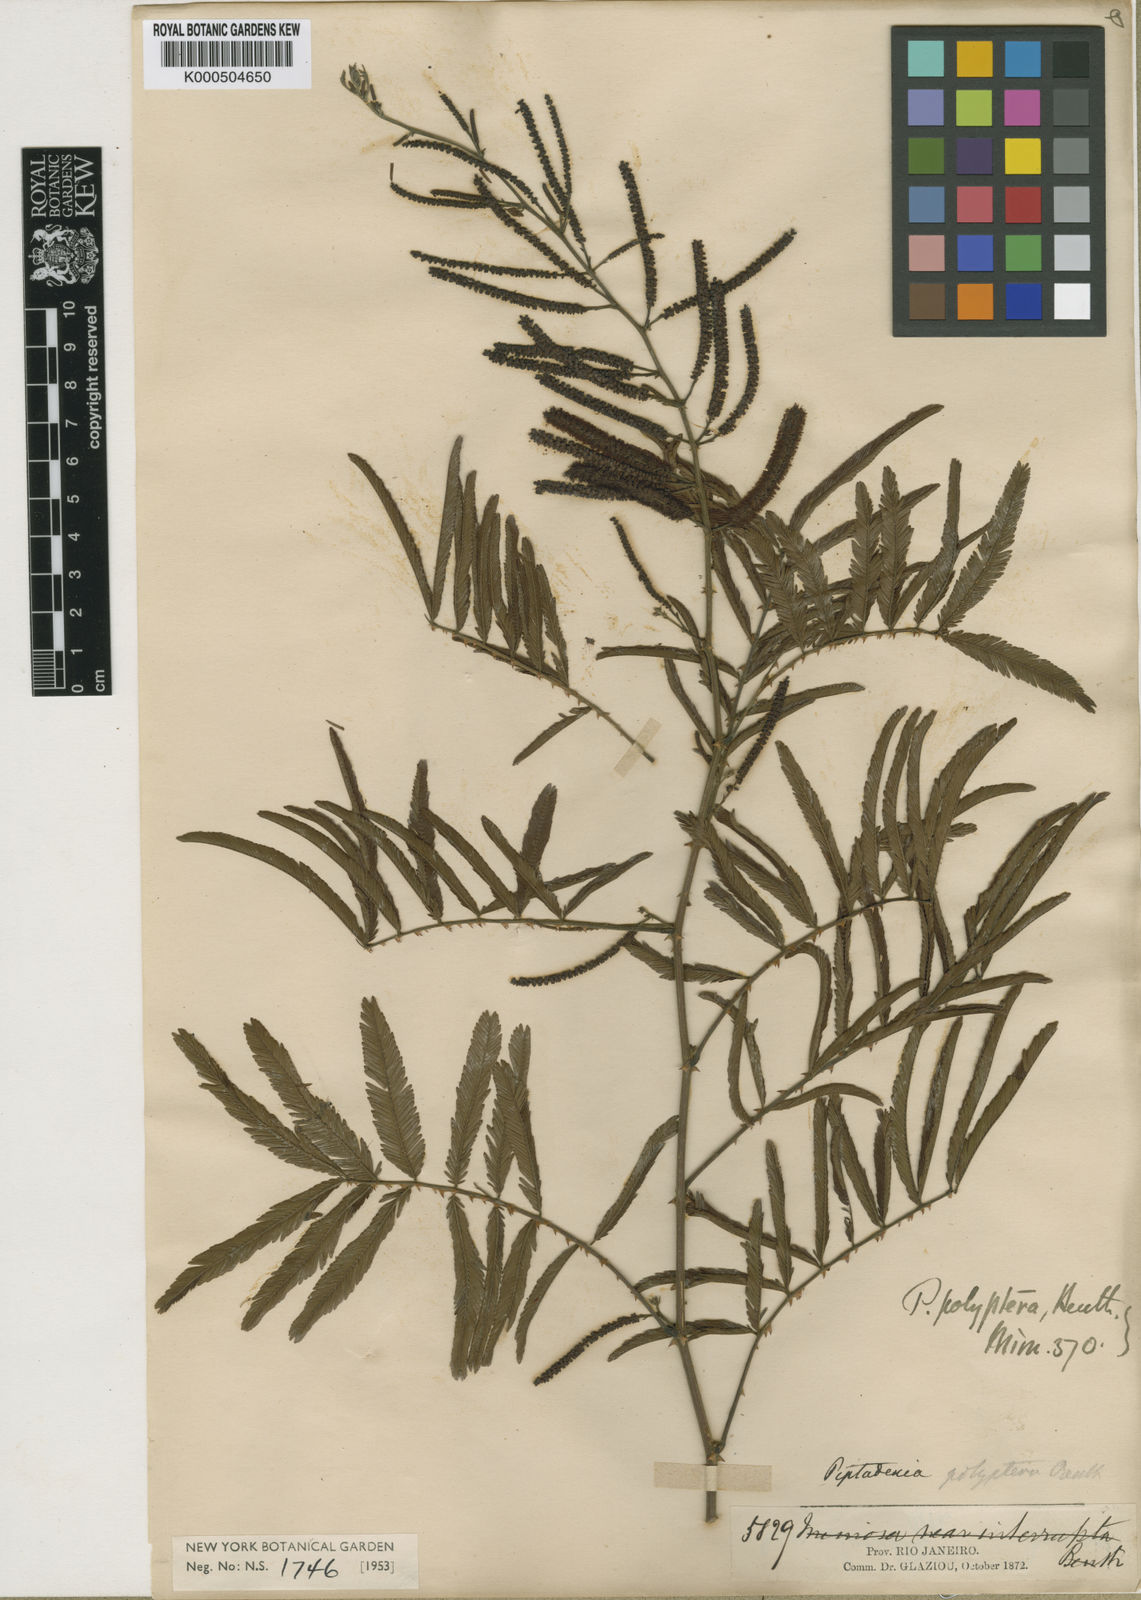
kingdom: Plantae
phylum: Tracheophyta
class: Magnoliopsida
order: Fabales
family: Fabaceae
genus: Piptadenia
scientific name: Piptadenia trisperma
